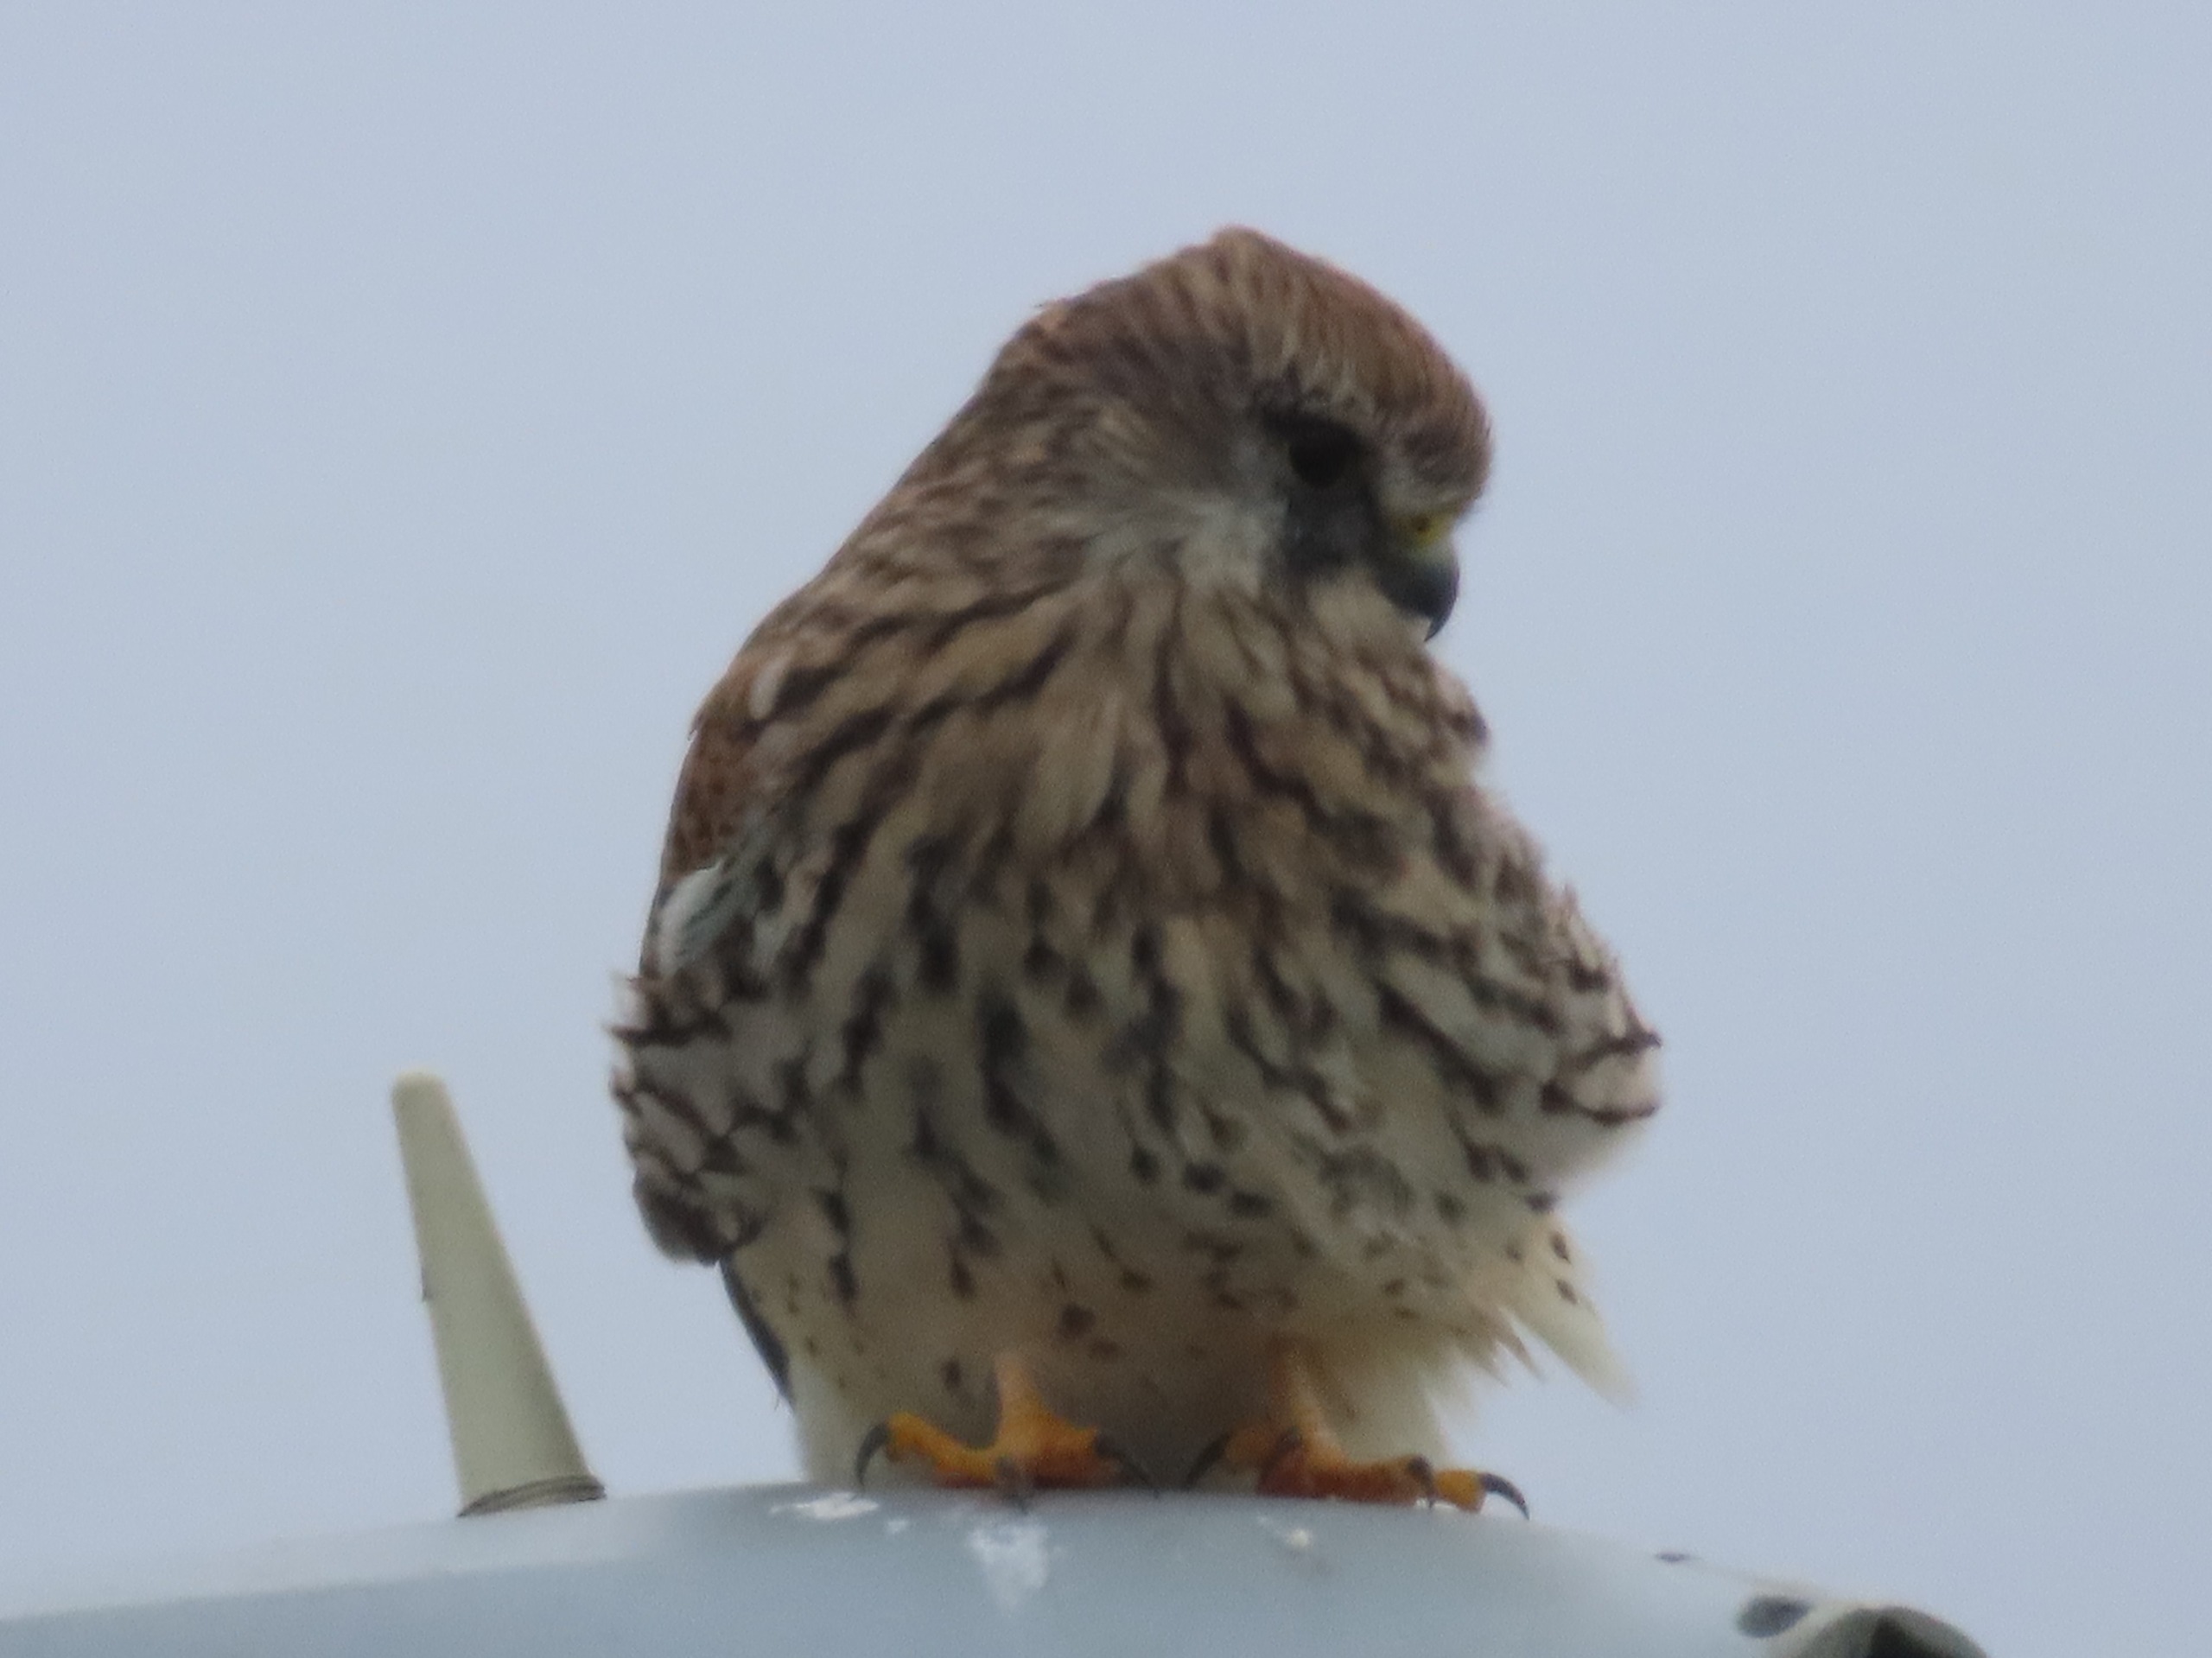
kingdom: Animalia
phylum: Chordata
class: Aves
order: Falconiformes
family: Falconidae
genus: Falco
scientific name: Falco tinnunculus
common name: Tårnfalk
